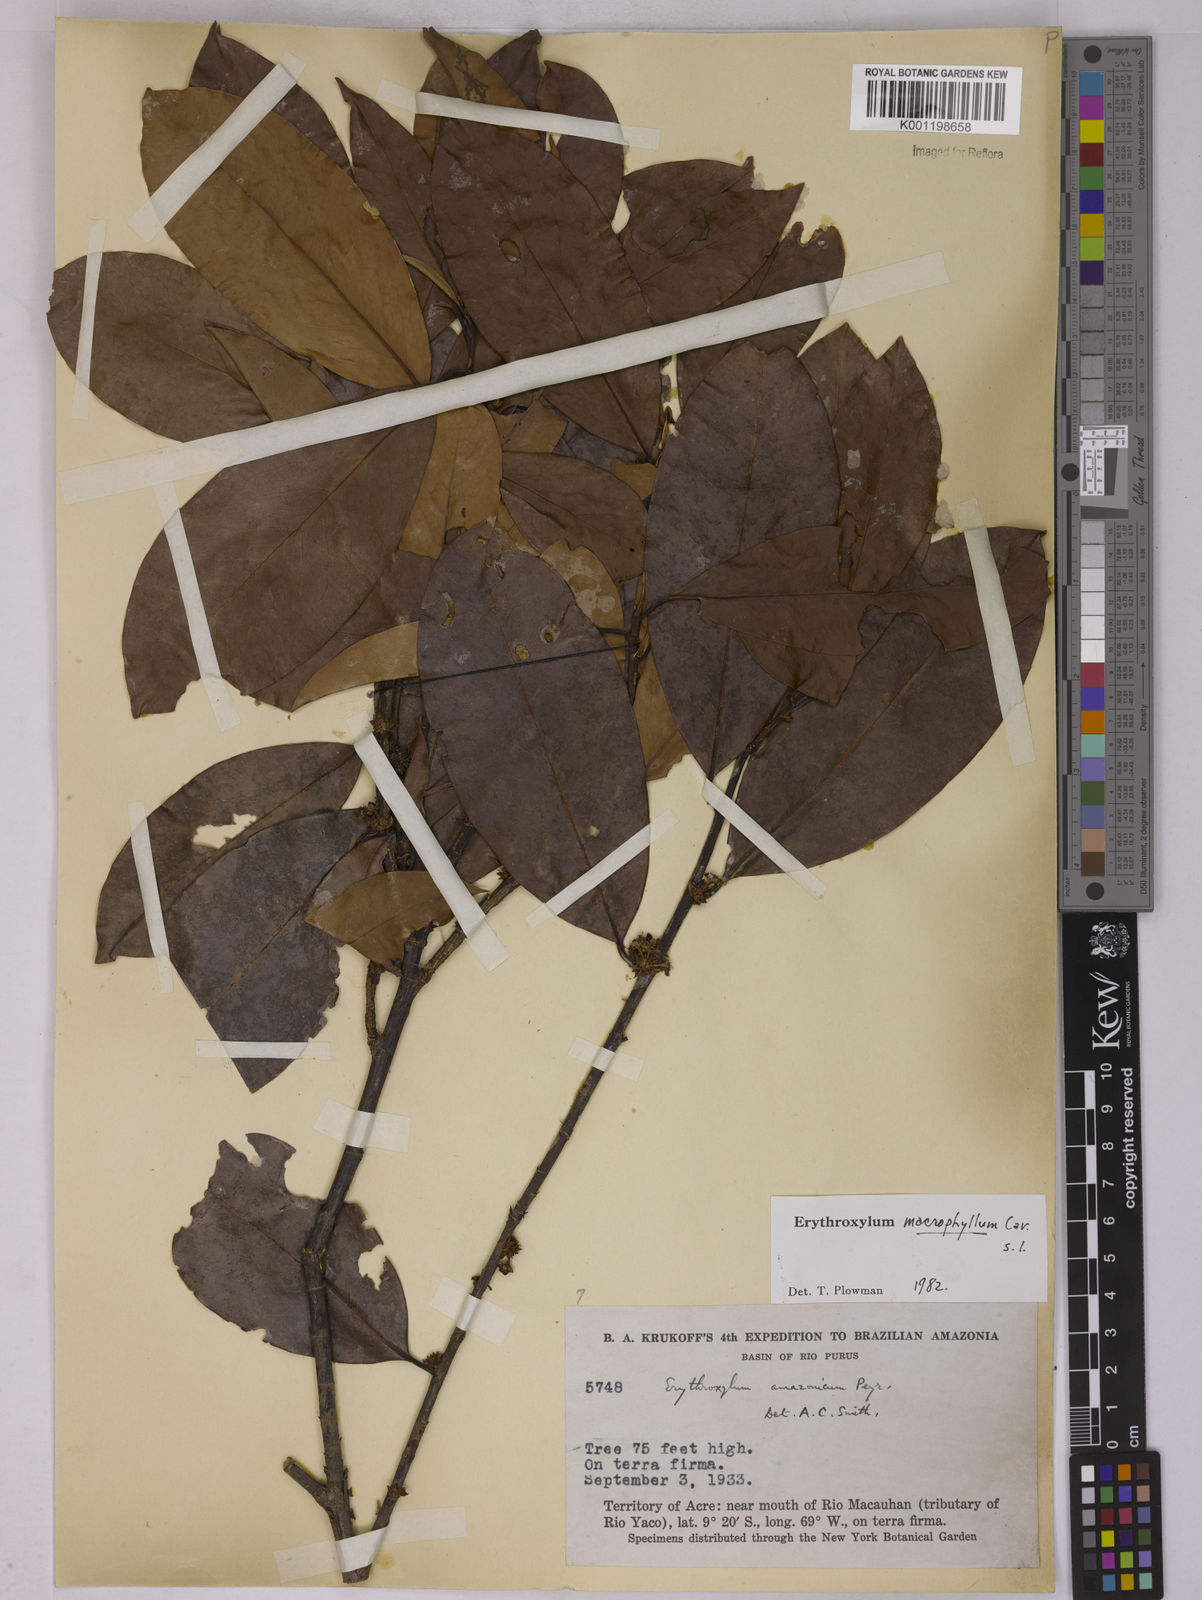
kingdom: Plantae
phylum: Tracheophyta
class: Magnoliopsida
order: Malpighiales
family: Erythroxylaceae
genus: Erythroxylum
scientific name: Erythroxylum macrophyllum
